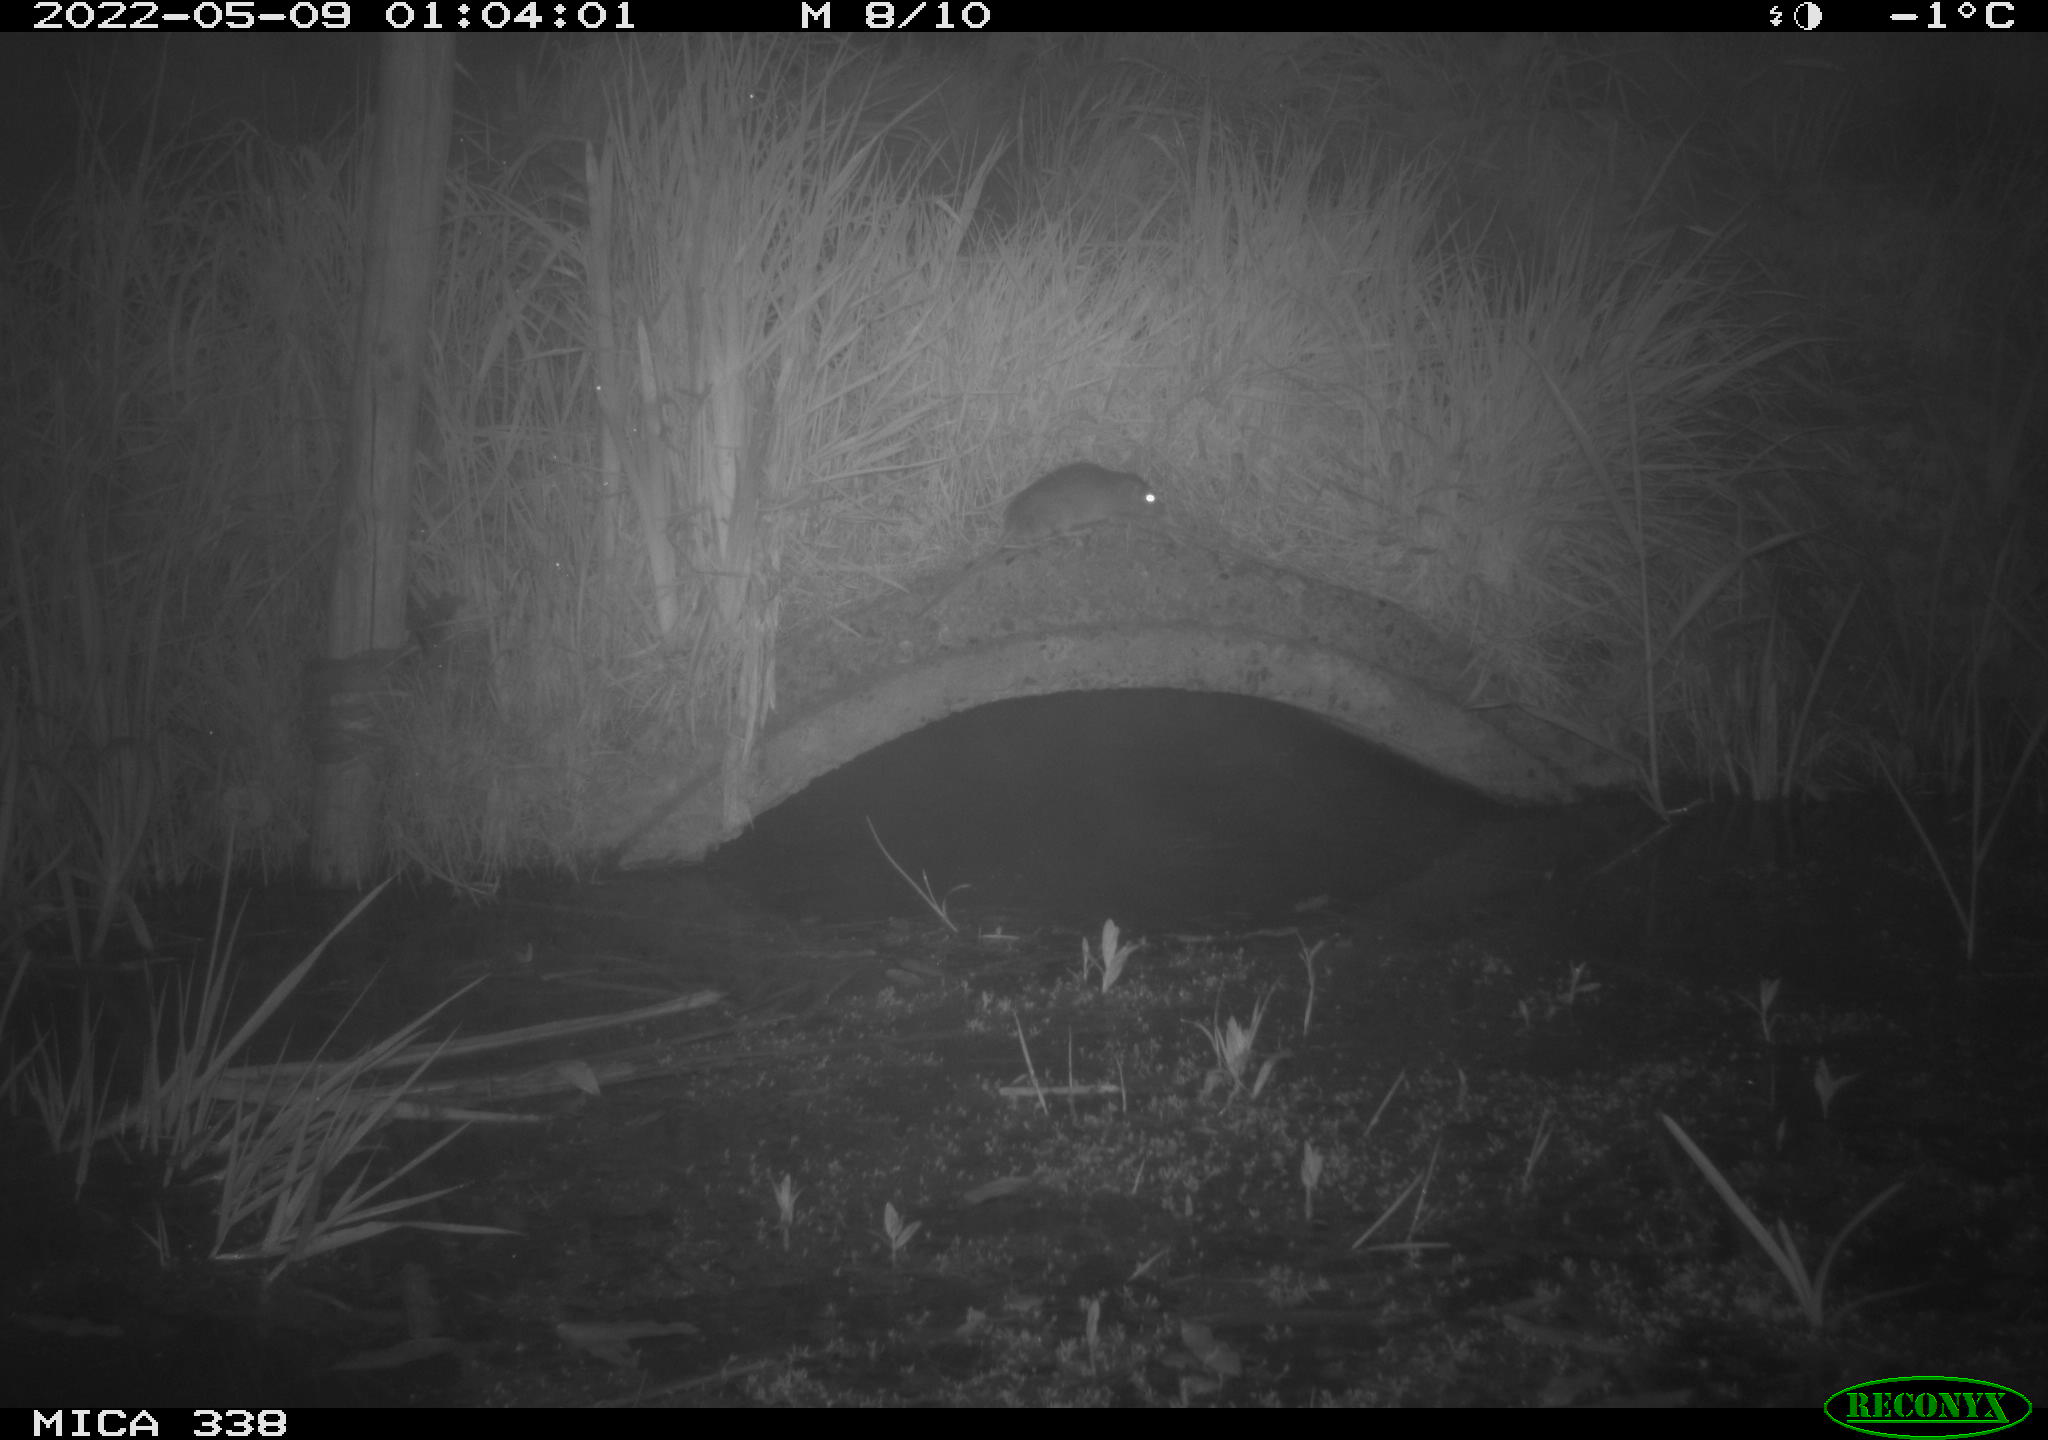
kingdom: Animalia
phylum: Chordata
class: Mammalia
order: Rodentia
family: Muridae
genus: Rattus
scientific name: Rattus norvegicus
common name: Brown rat
